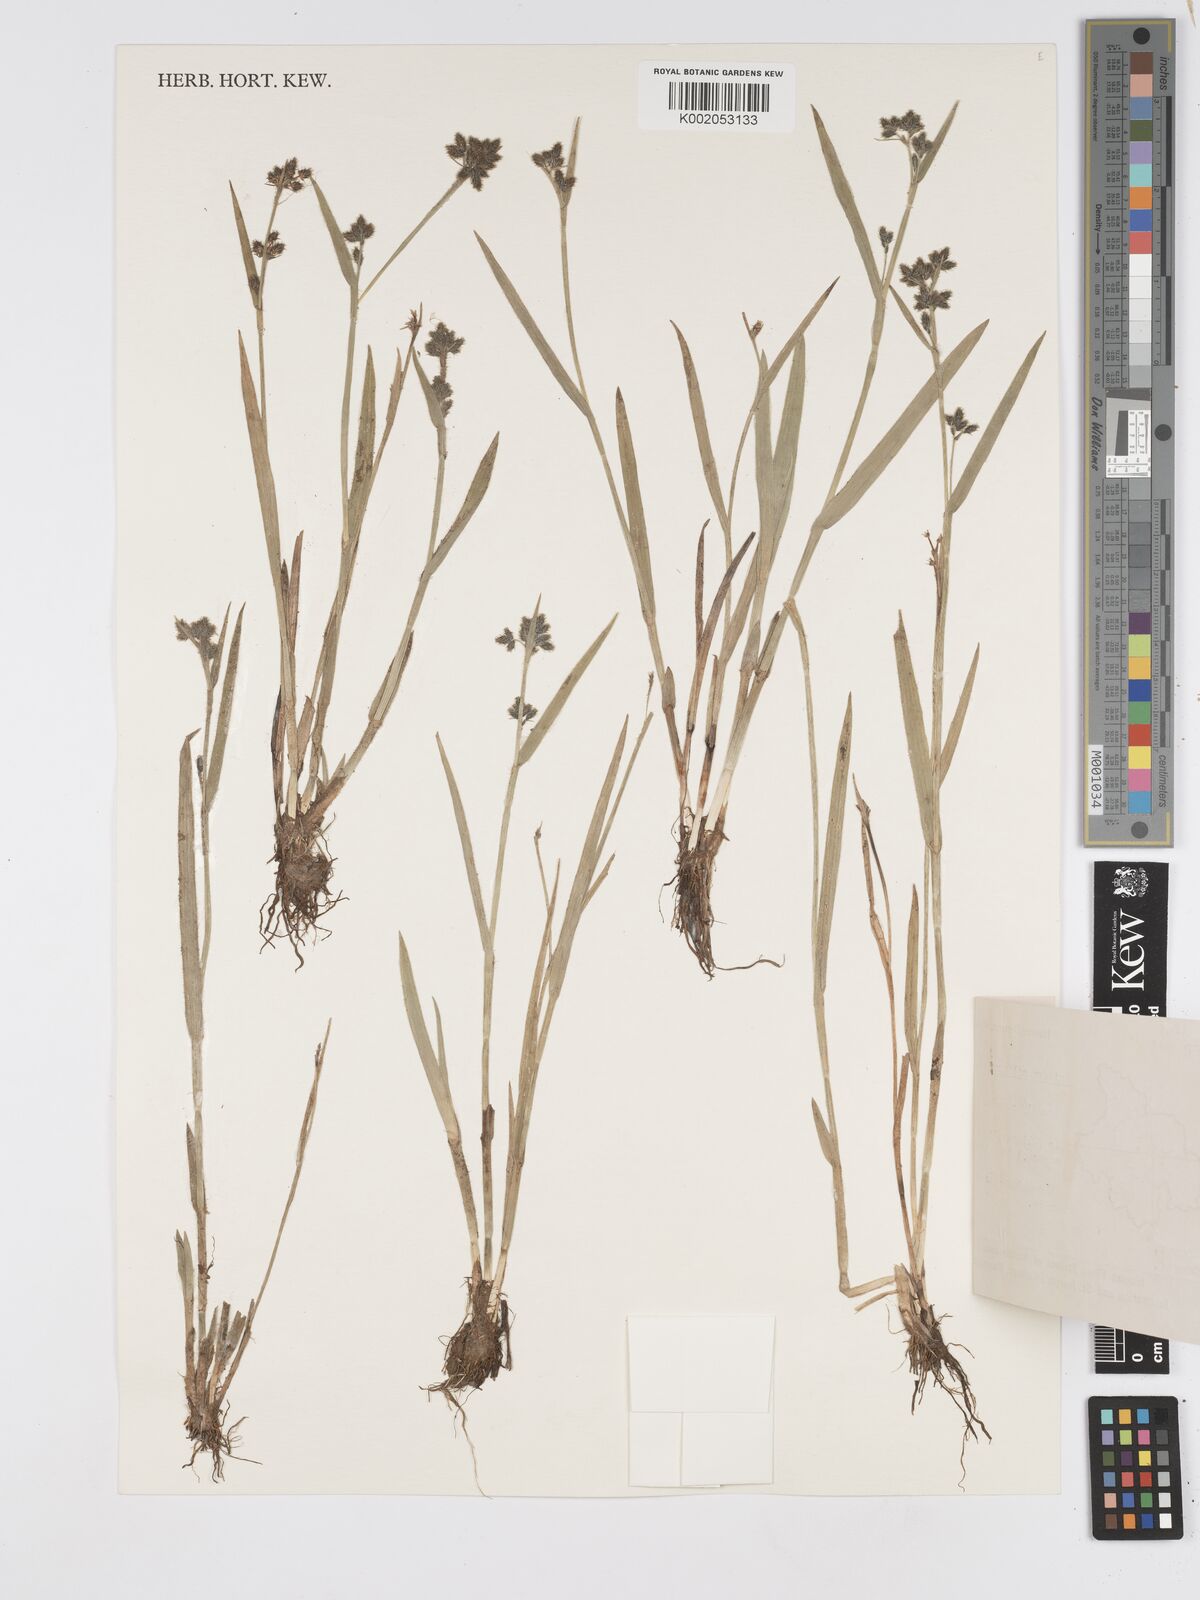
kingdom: Plantae
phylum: Tracheophyta
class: Liliopsida
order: Poales
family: Cyperaceae
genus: Fuirena
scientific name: Fuirena ciliaris
